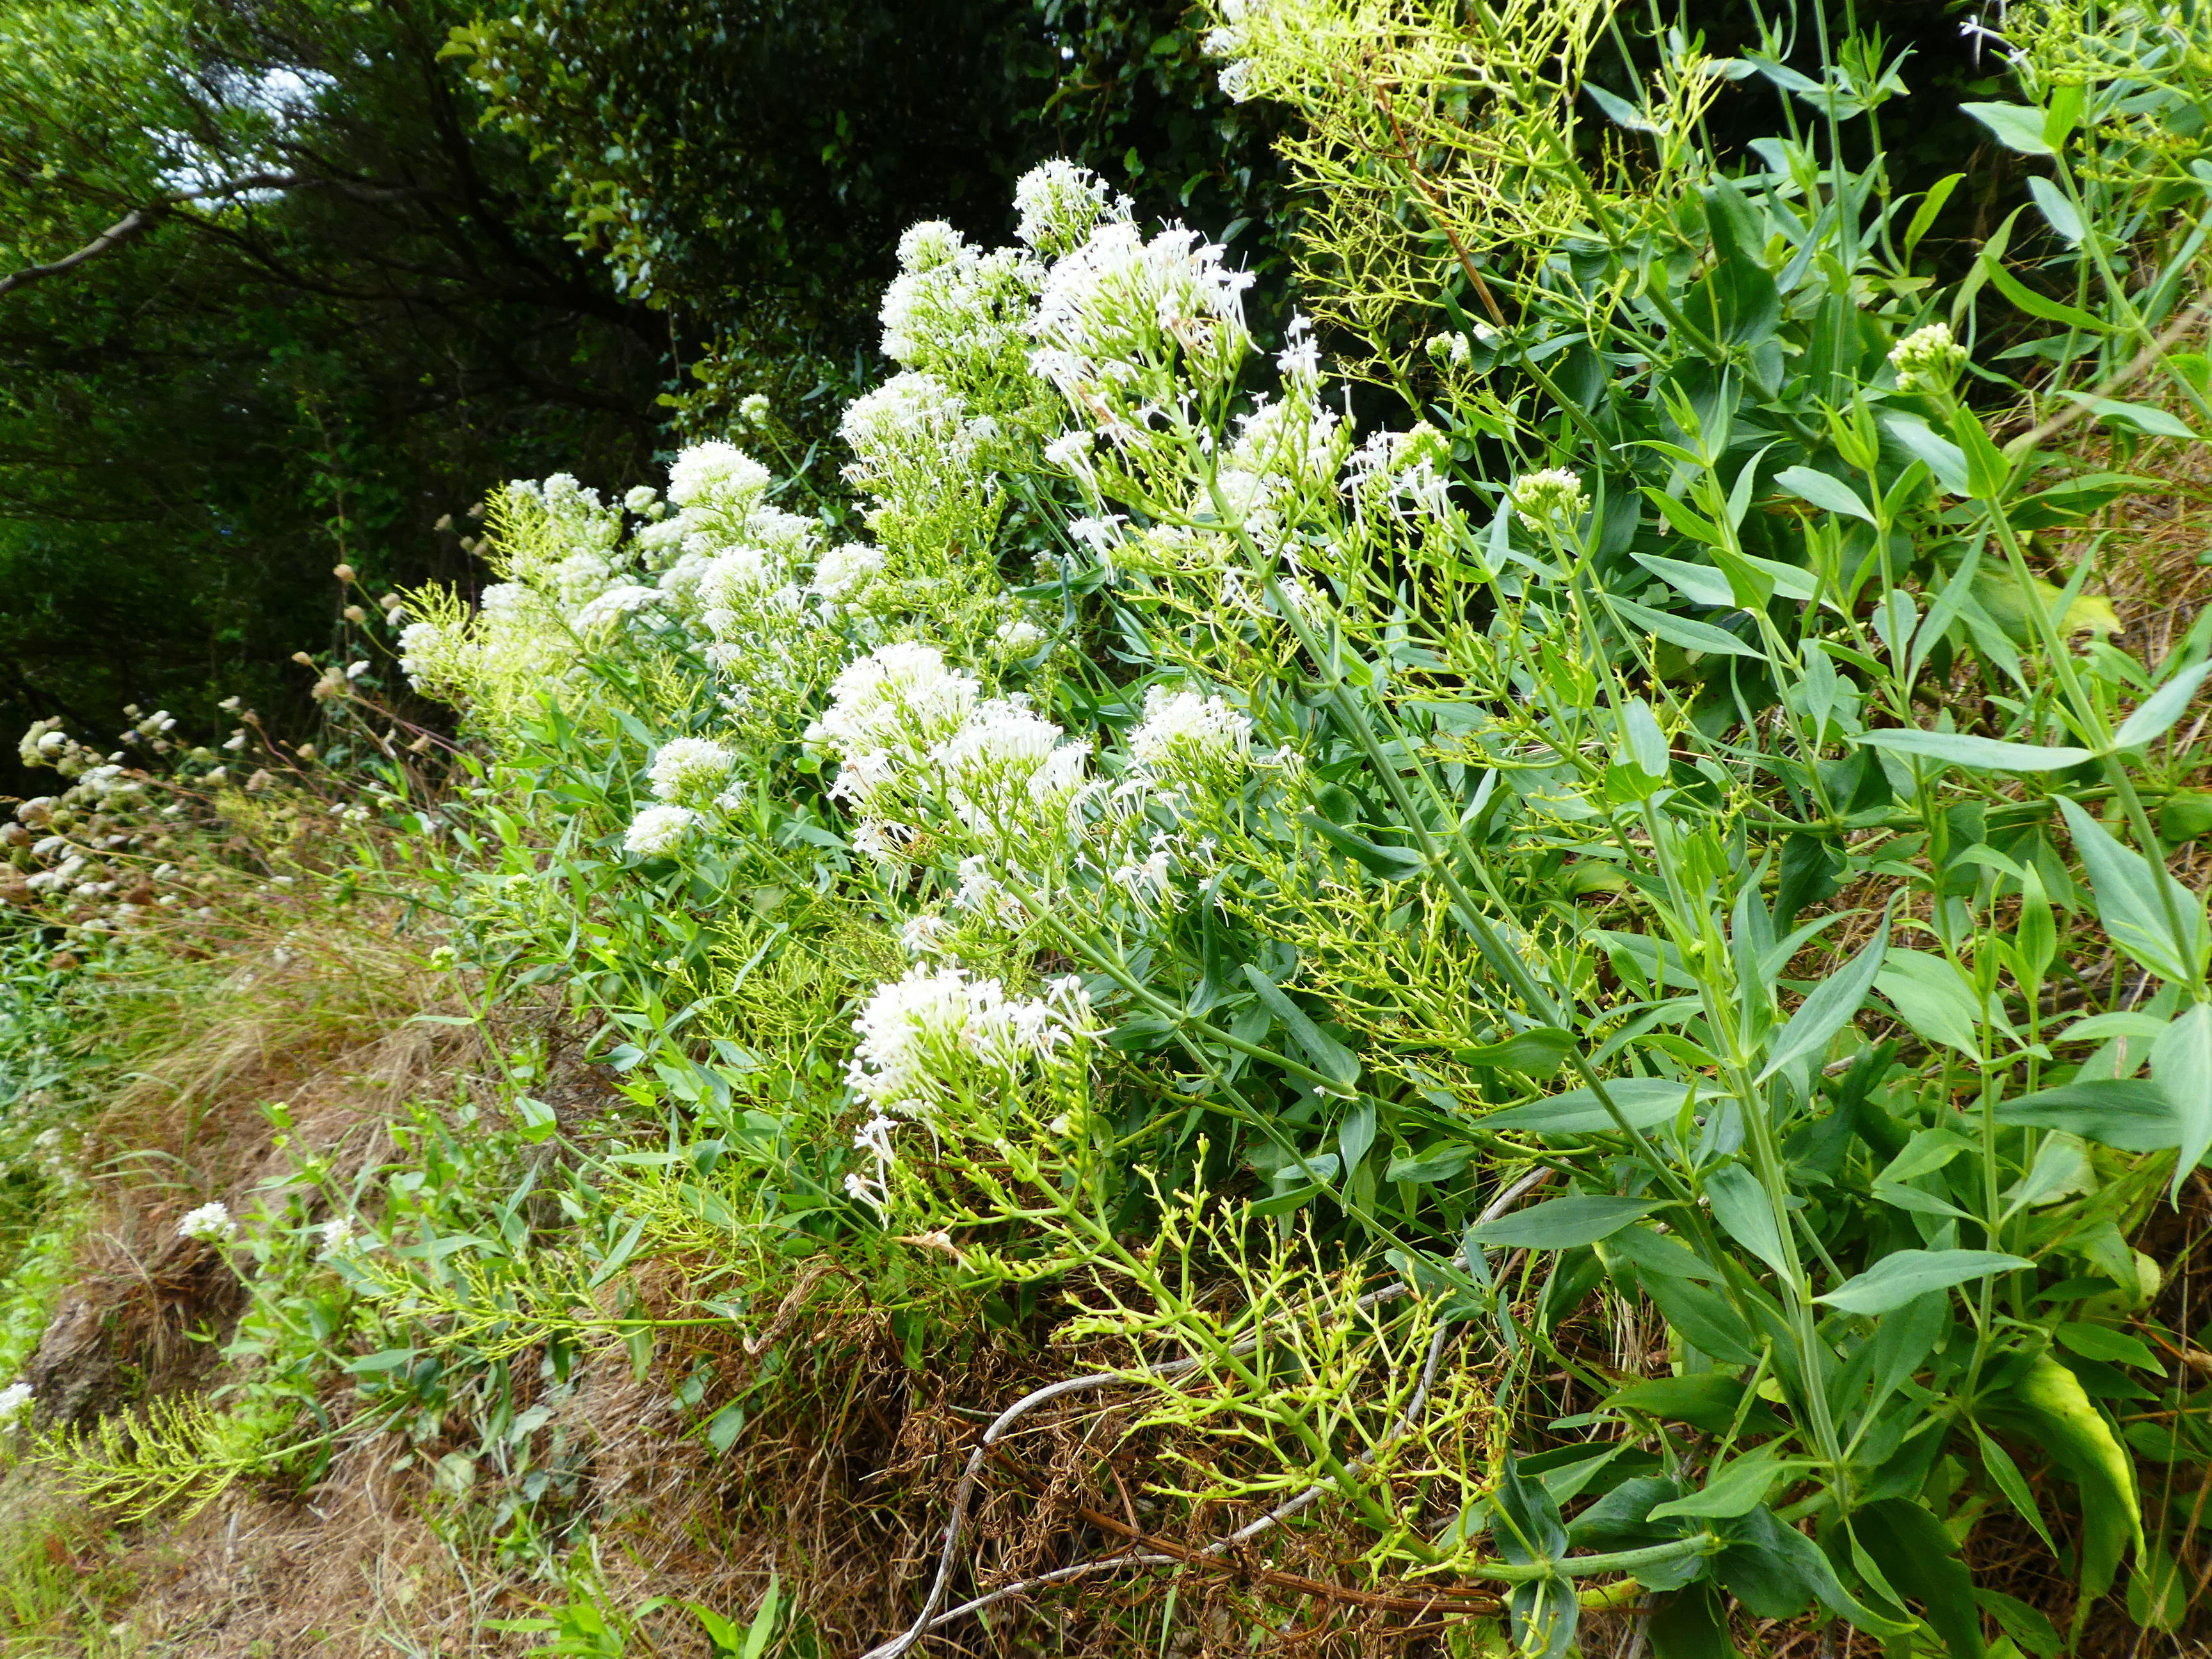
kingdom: Plantae
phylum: Tracheophyta
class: Magnoliopsida
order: Dipsacales
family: Caprifoliaceae
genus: Centranthus
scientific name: Centranthus ruber
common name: Red valerian
